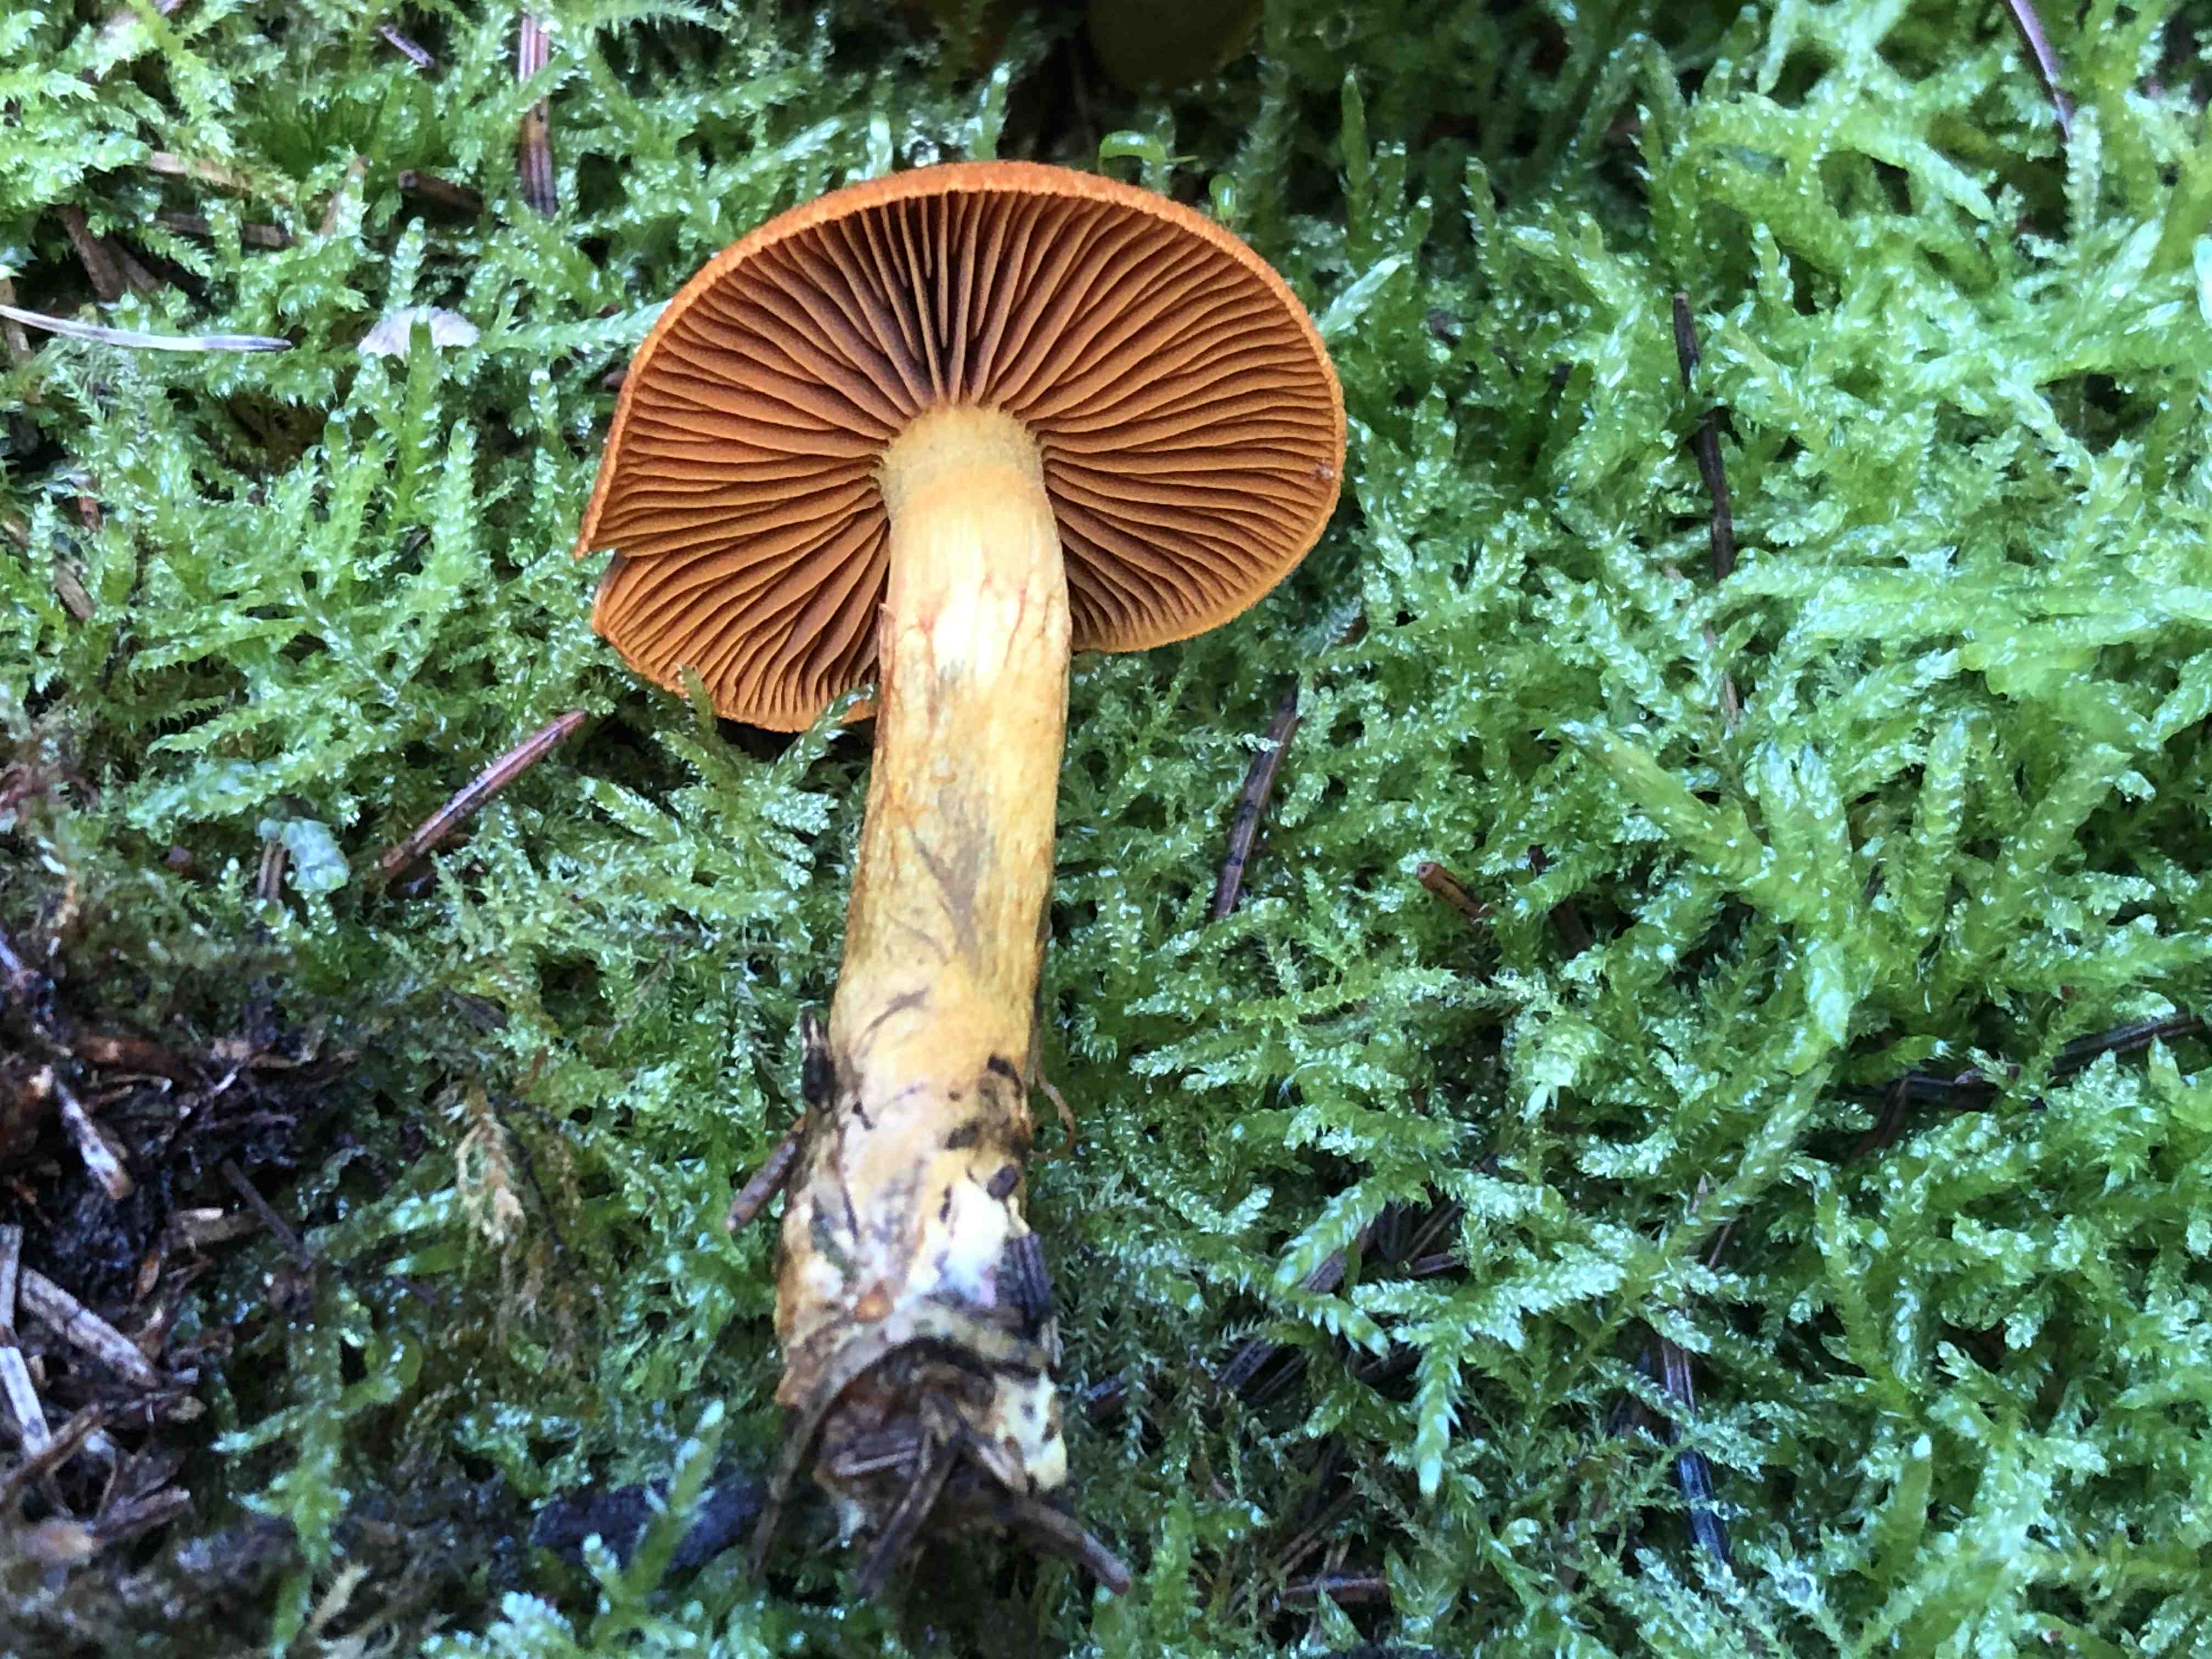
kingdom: Fungi
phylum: Basidiomycota
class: Agaricomycetes
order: Agaricales
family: Cortinariaceae
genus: Cortinarius
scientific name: Cortinarius malicorius
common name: grønkødet slørhat
